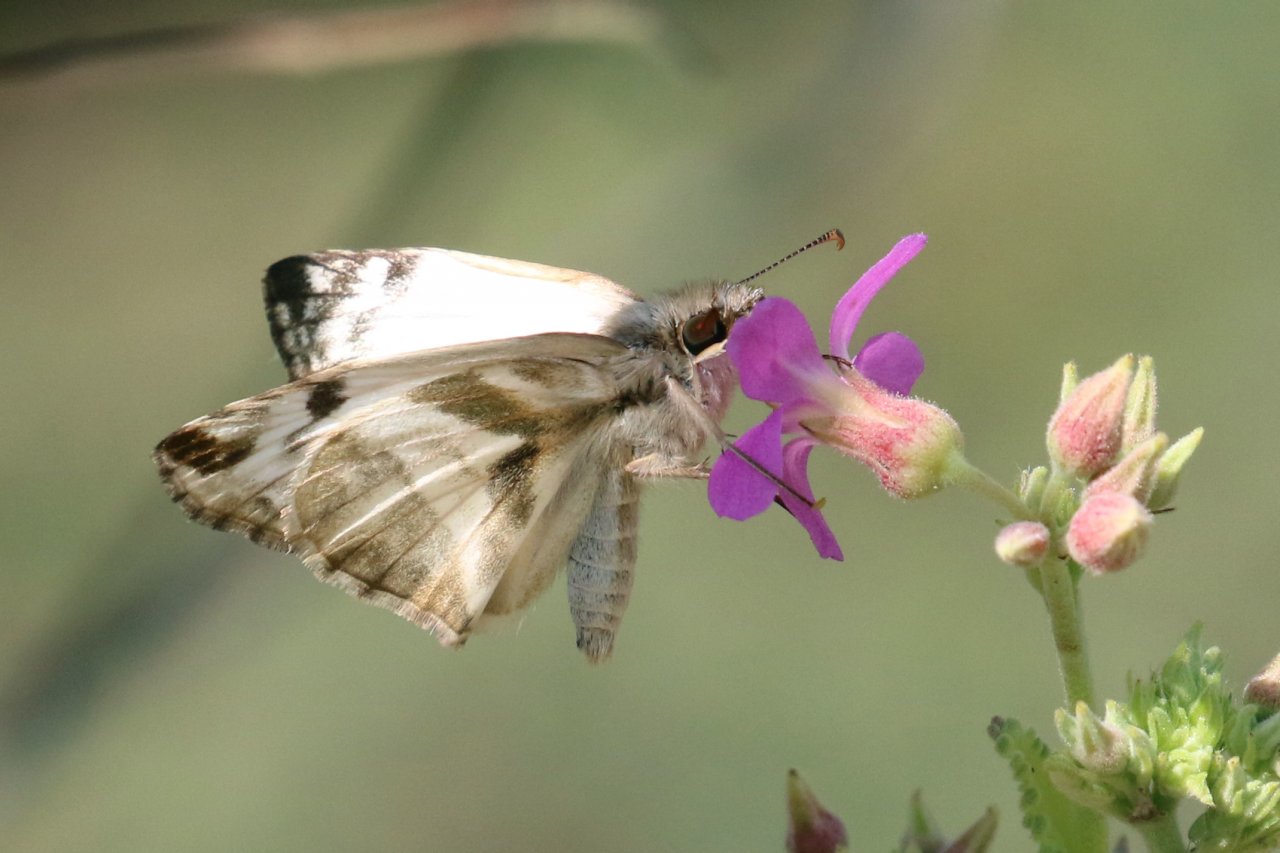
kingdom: Animalia
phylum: Arthropoda
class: Insecta
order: Lepidoptera
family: Hesperiidae
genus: Heliopetes
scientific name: Heliopetes laviana
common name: Laviana White-Skipper
